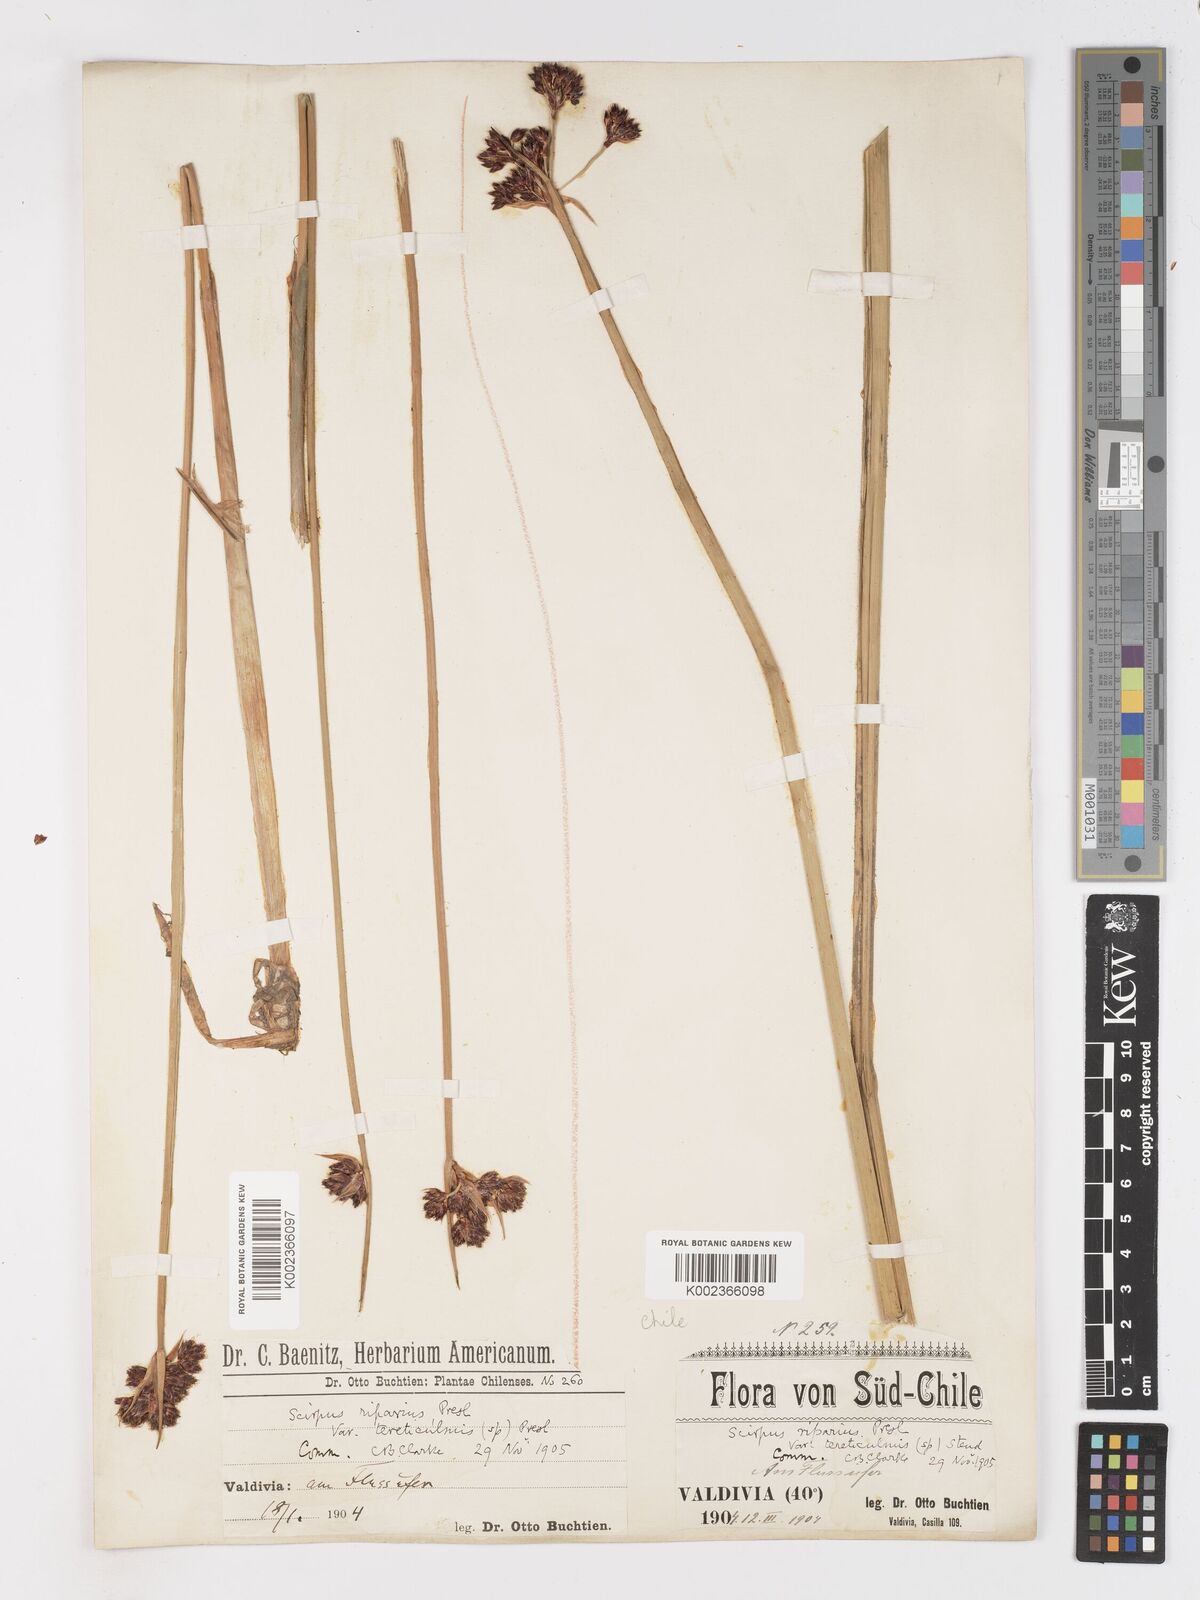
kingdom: Plantae
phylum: Tracheophyta
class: Liliopsida
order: Poales
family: Cyperaceae
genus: Schoenoplectus
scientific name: Schoenoplectus californicus
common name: California bulrush
